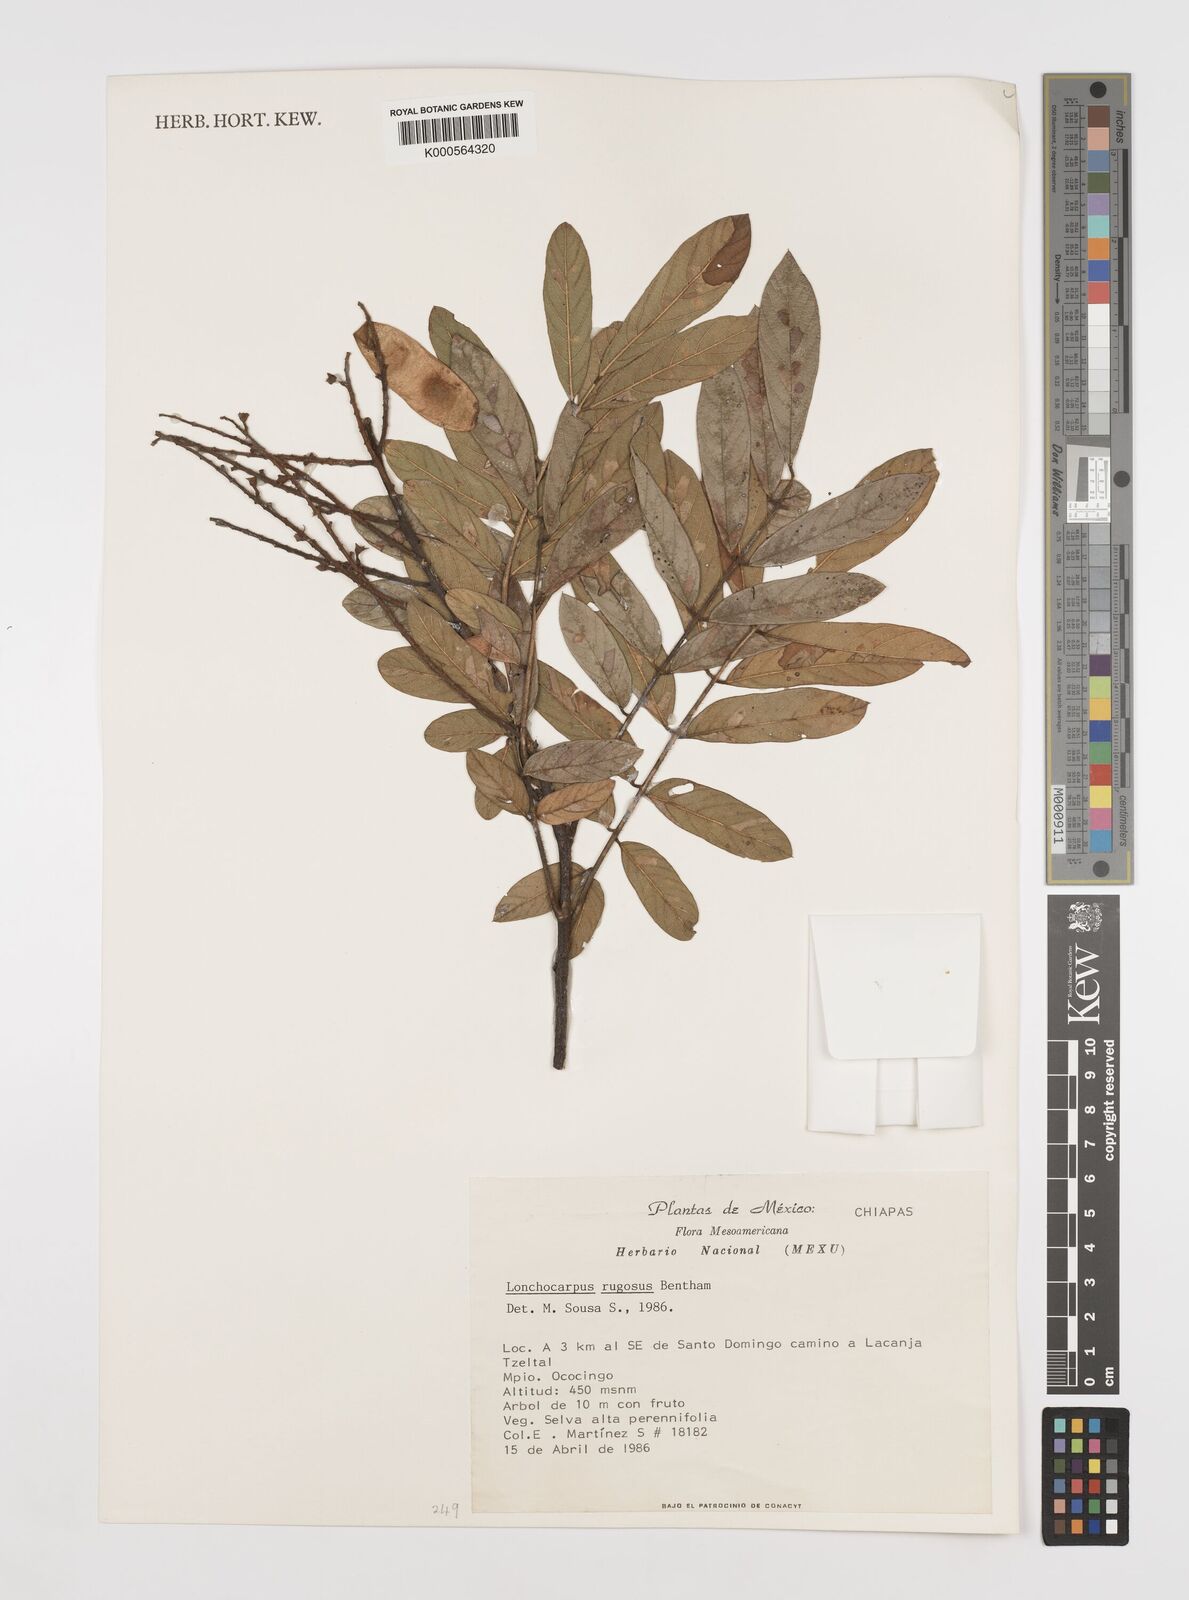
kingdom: Plantae
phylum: Tracheophyta
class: Magnoliopsida
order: Fabales
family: Fabaceae
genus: Lonchocarpus
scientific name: Lonchocarpus rugosus
